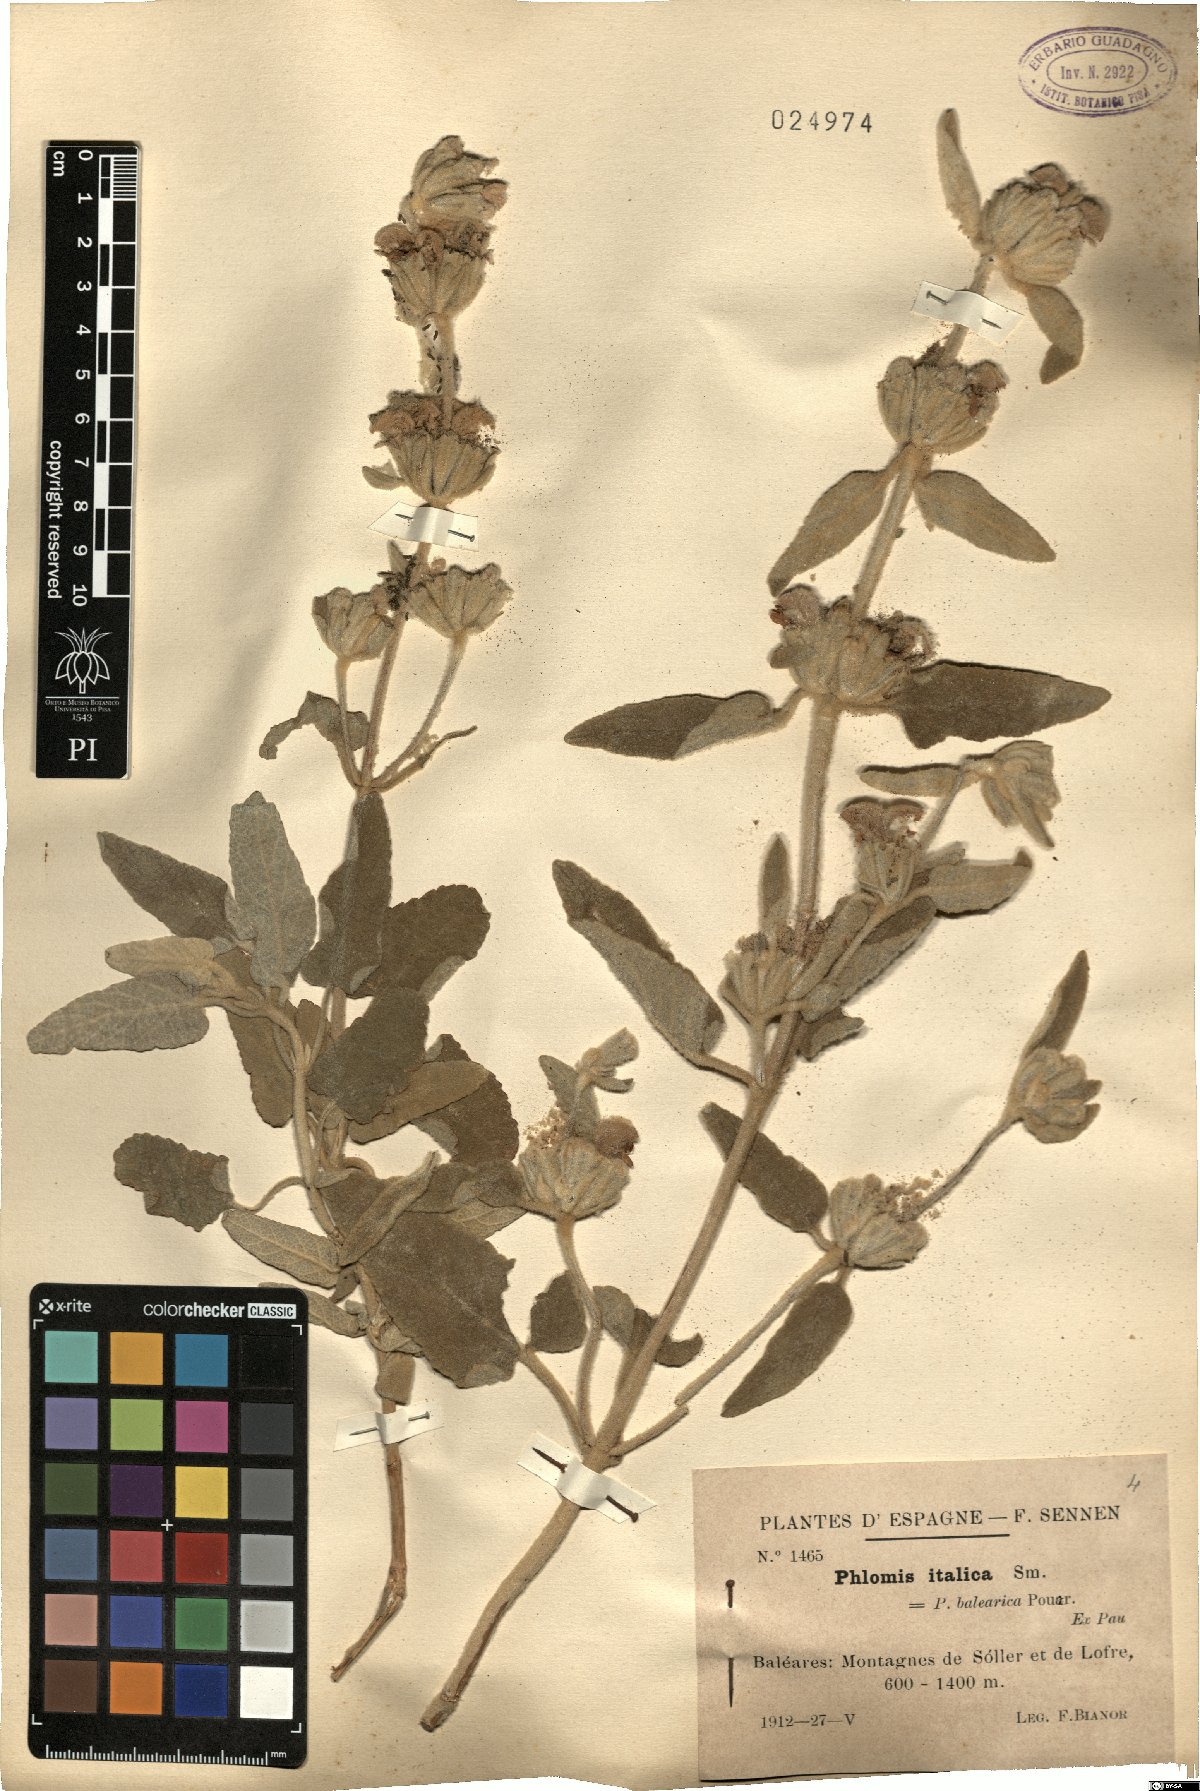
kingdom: Plantae
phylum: Tracheophyta
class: Magnoliopsida
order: Lamiales
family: Lamiaceae
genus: Phlomis
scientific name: Phlomis italica
